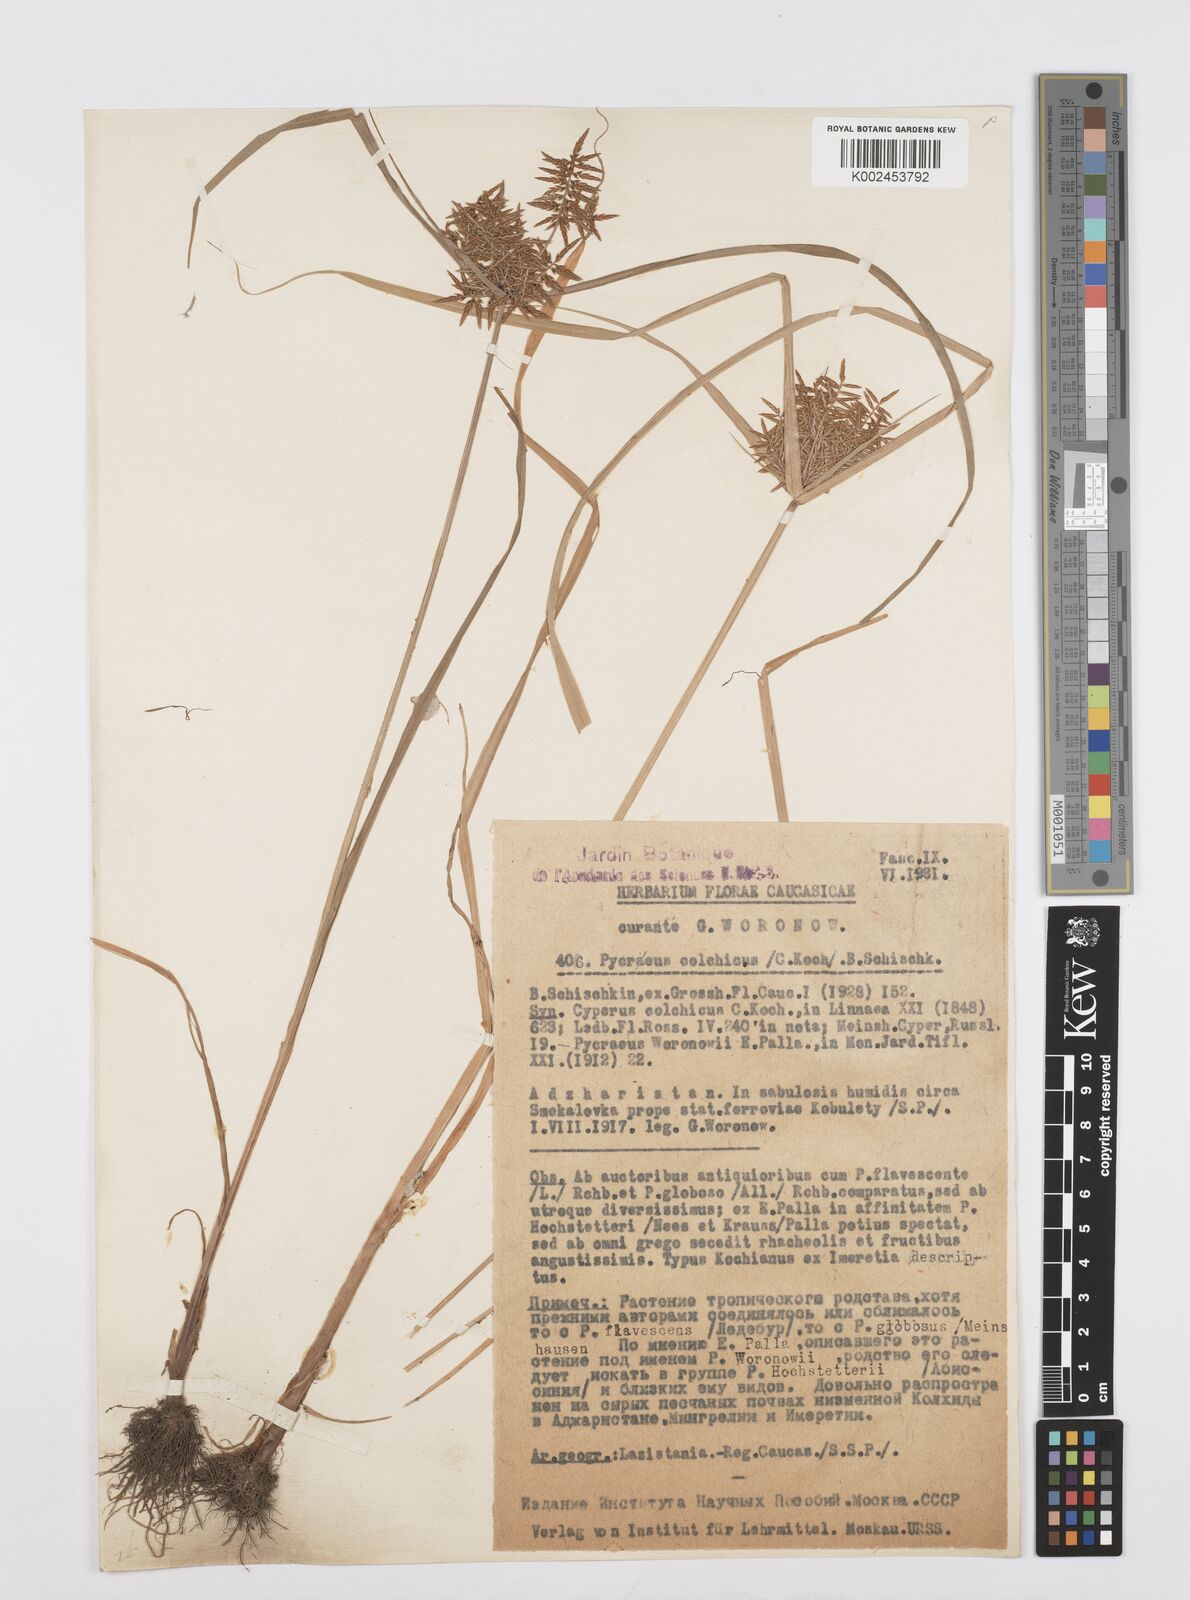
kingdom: Plantae
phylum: Tracheophyta
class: Liliopsida
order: Poales
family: Cyperaceae
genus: Cyperus
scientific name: Cyperus macrostachyos
